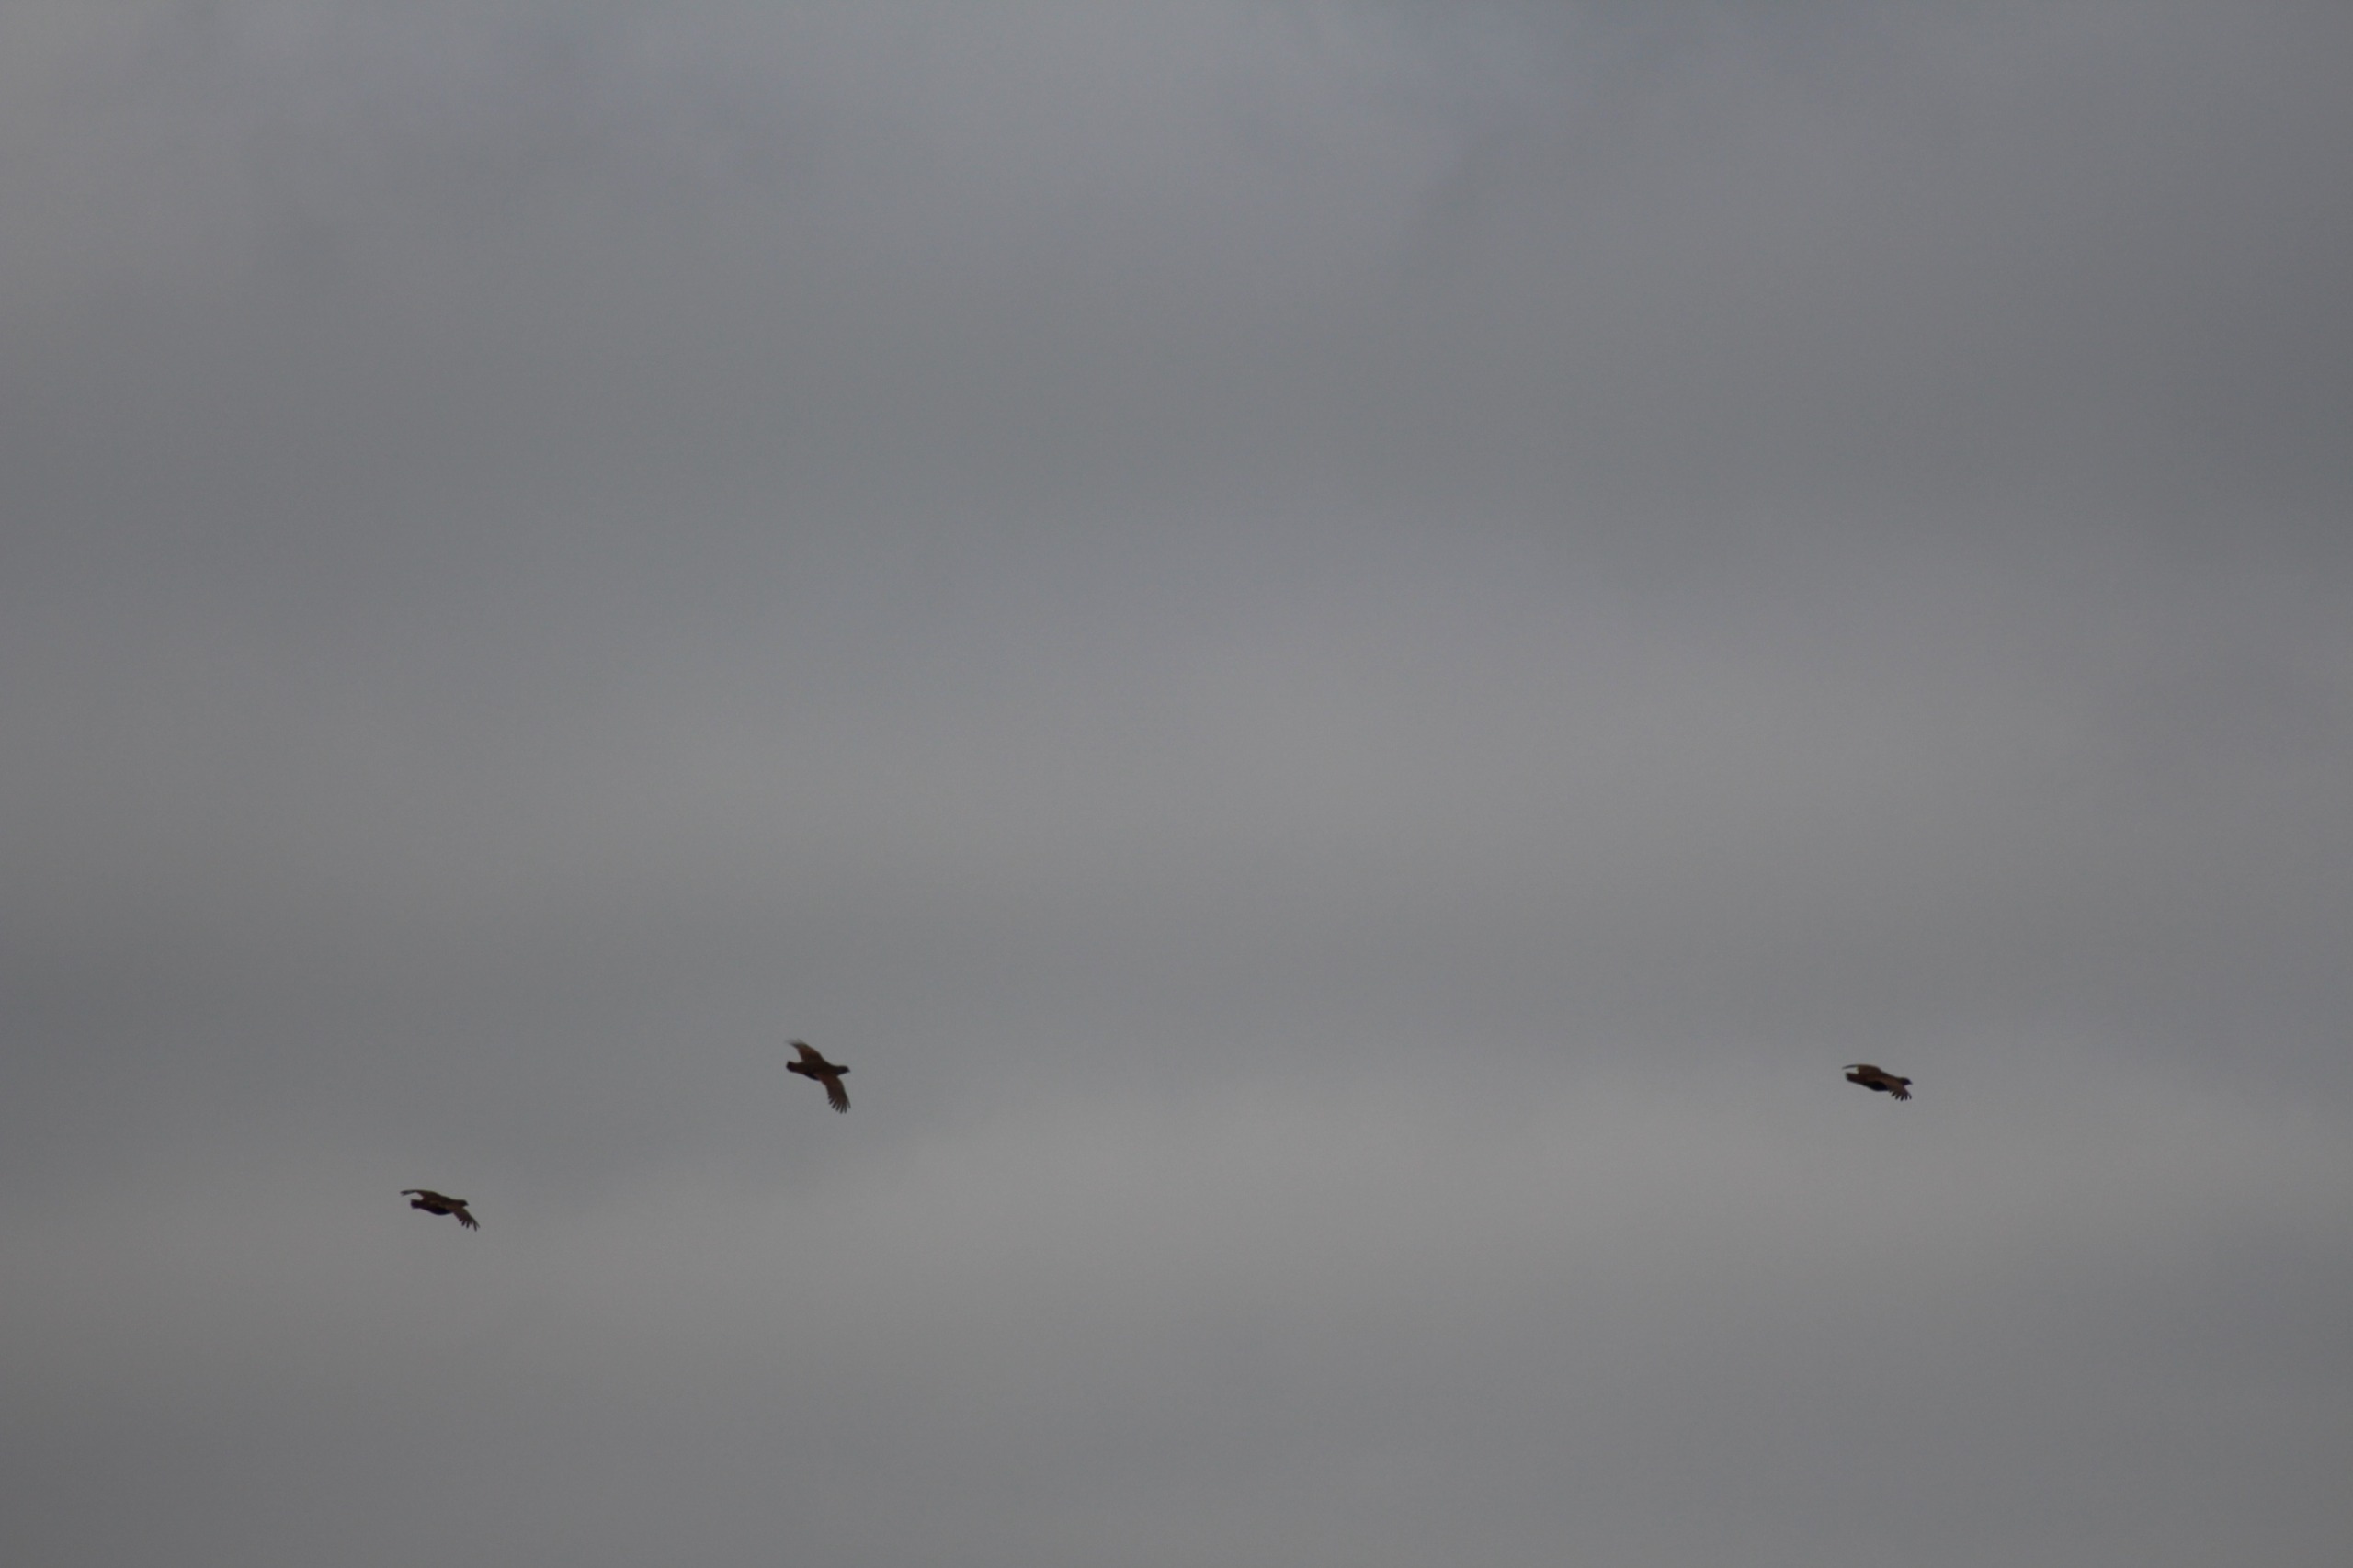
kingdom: Animalia
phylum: Chordata
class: Aves
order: Galliformes
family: Phasianidae
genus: Perdix
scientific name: Perdix perdix
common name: Agerhøne
